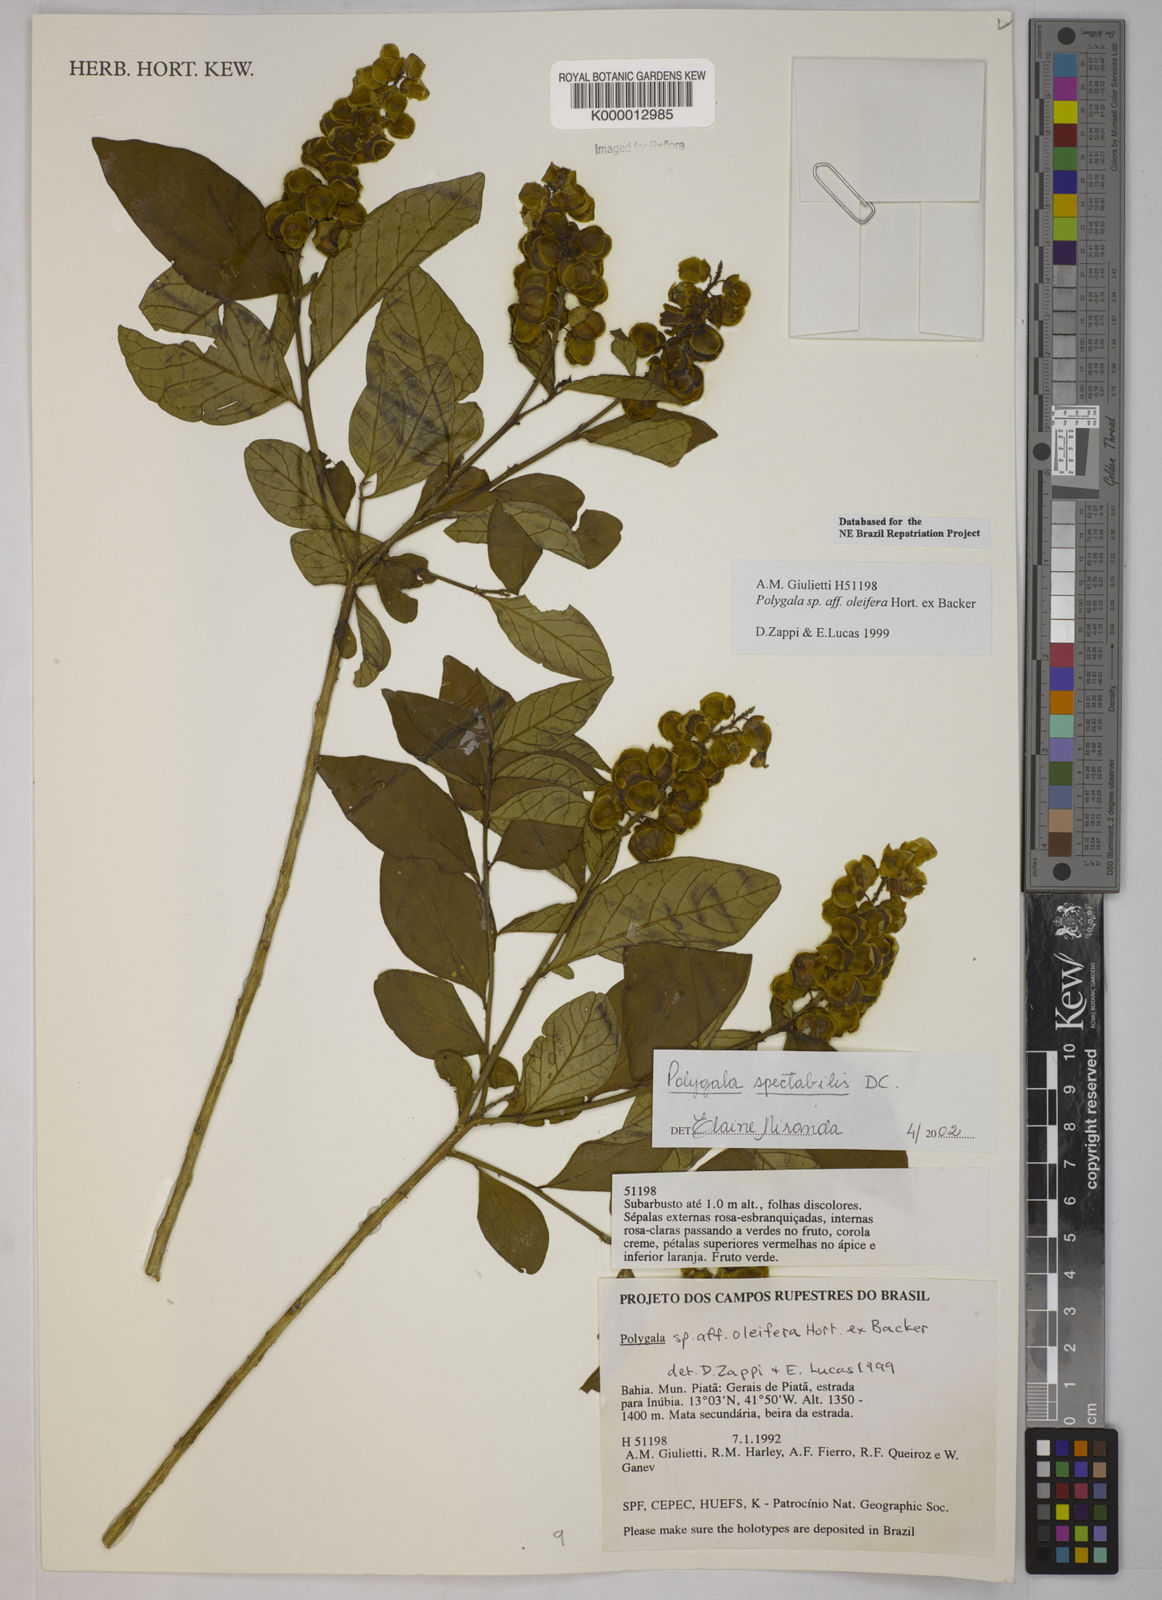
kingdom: Plantae
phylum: Tracheophyta
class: Magnoliopsida
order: Fabales
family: Polygalaceae
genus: Caamembeca
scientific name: Caamembeca spectabilis
